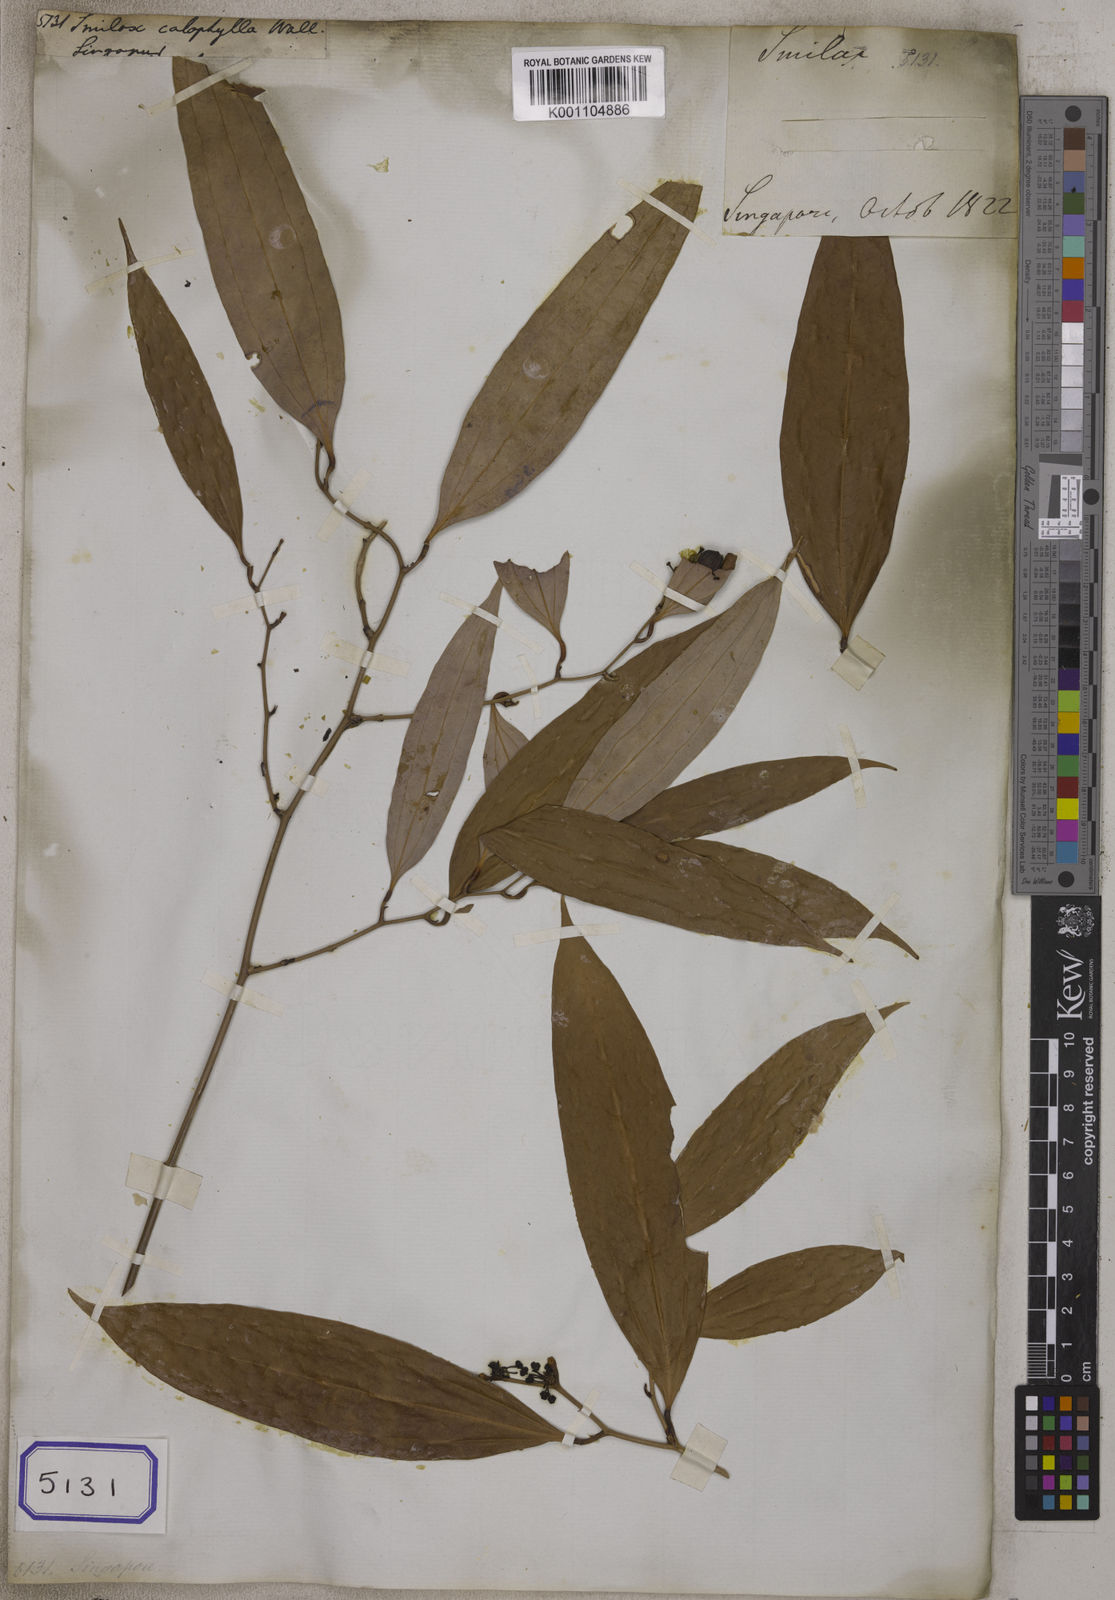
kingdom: Plantae
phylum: Tracheophyta
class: Liliopsida
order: Liliales
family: Smilacaceae
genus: Smilax
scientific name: Smilax
